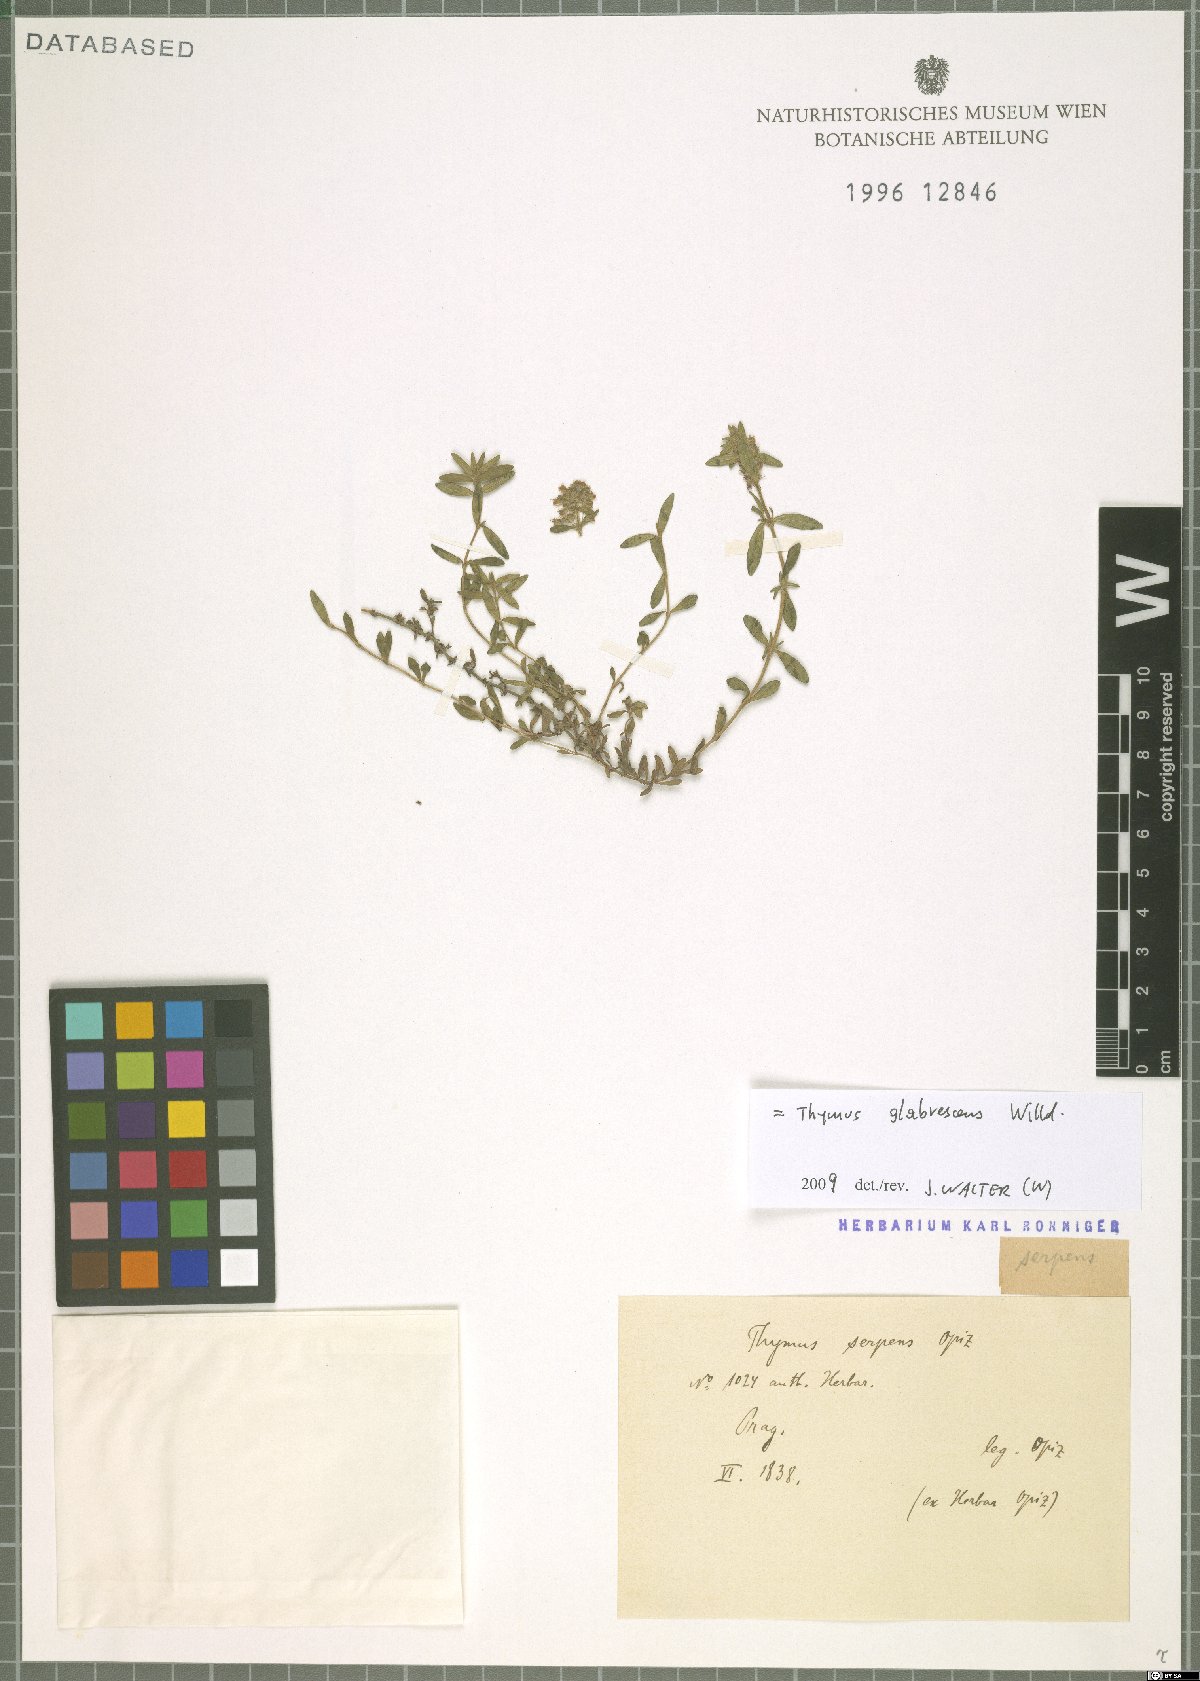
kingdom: Plantae
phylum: Tracheophyta
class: Magnoliopsida
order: Lamiales
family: Lamiaceae
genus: Thymus
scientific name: Thymus odoratissimus
